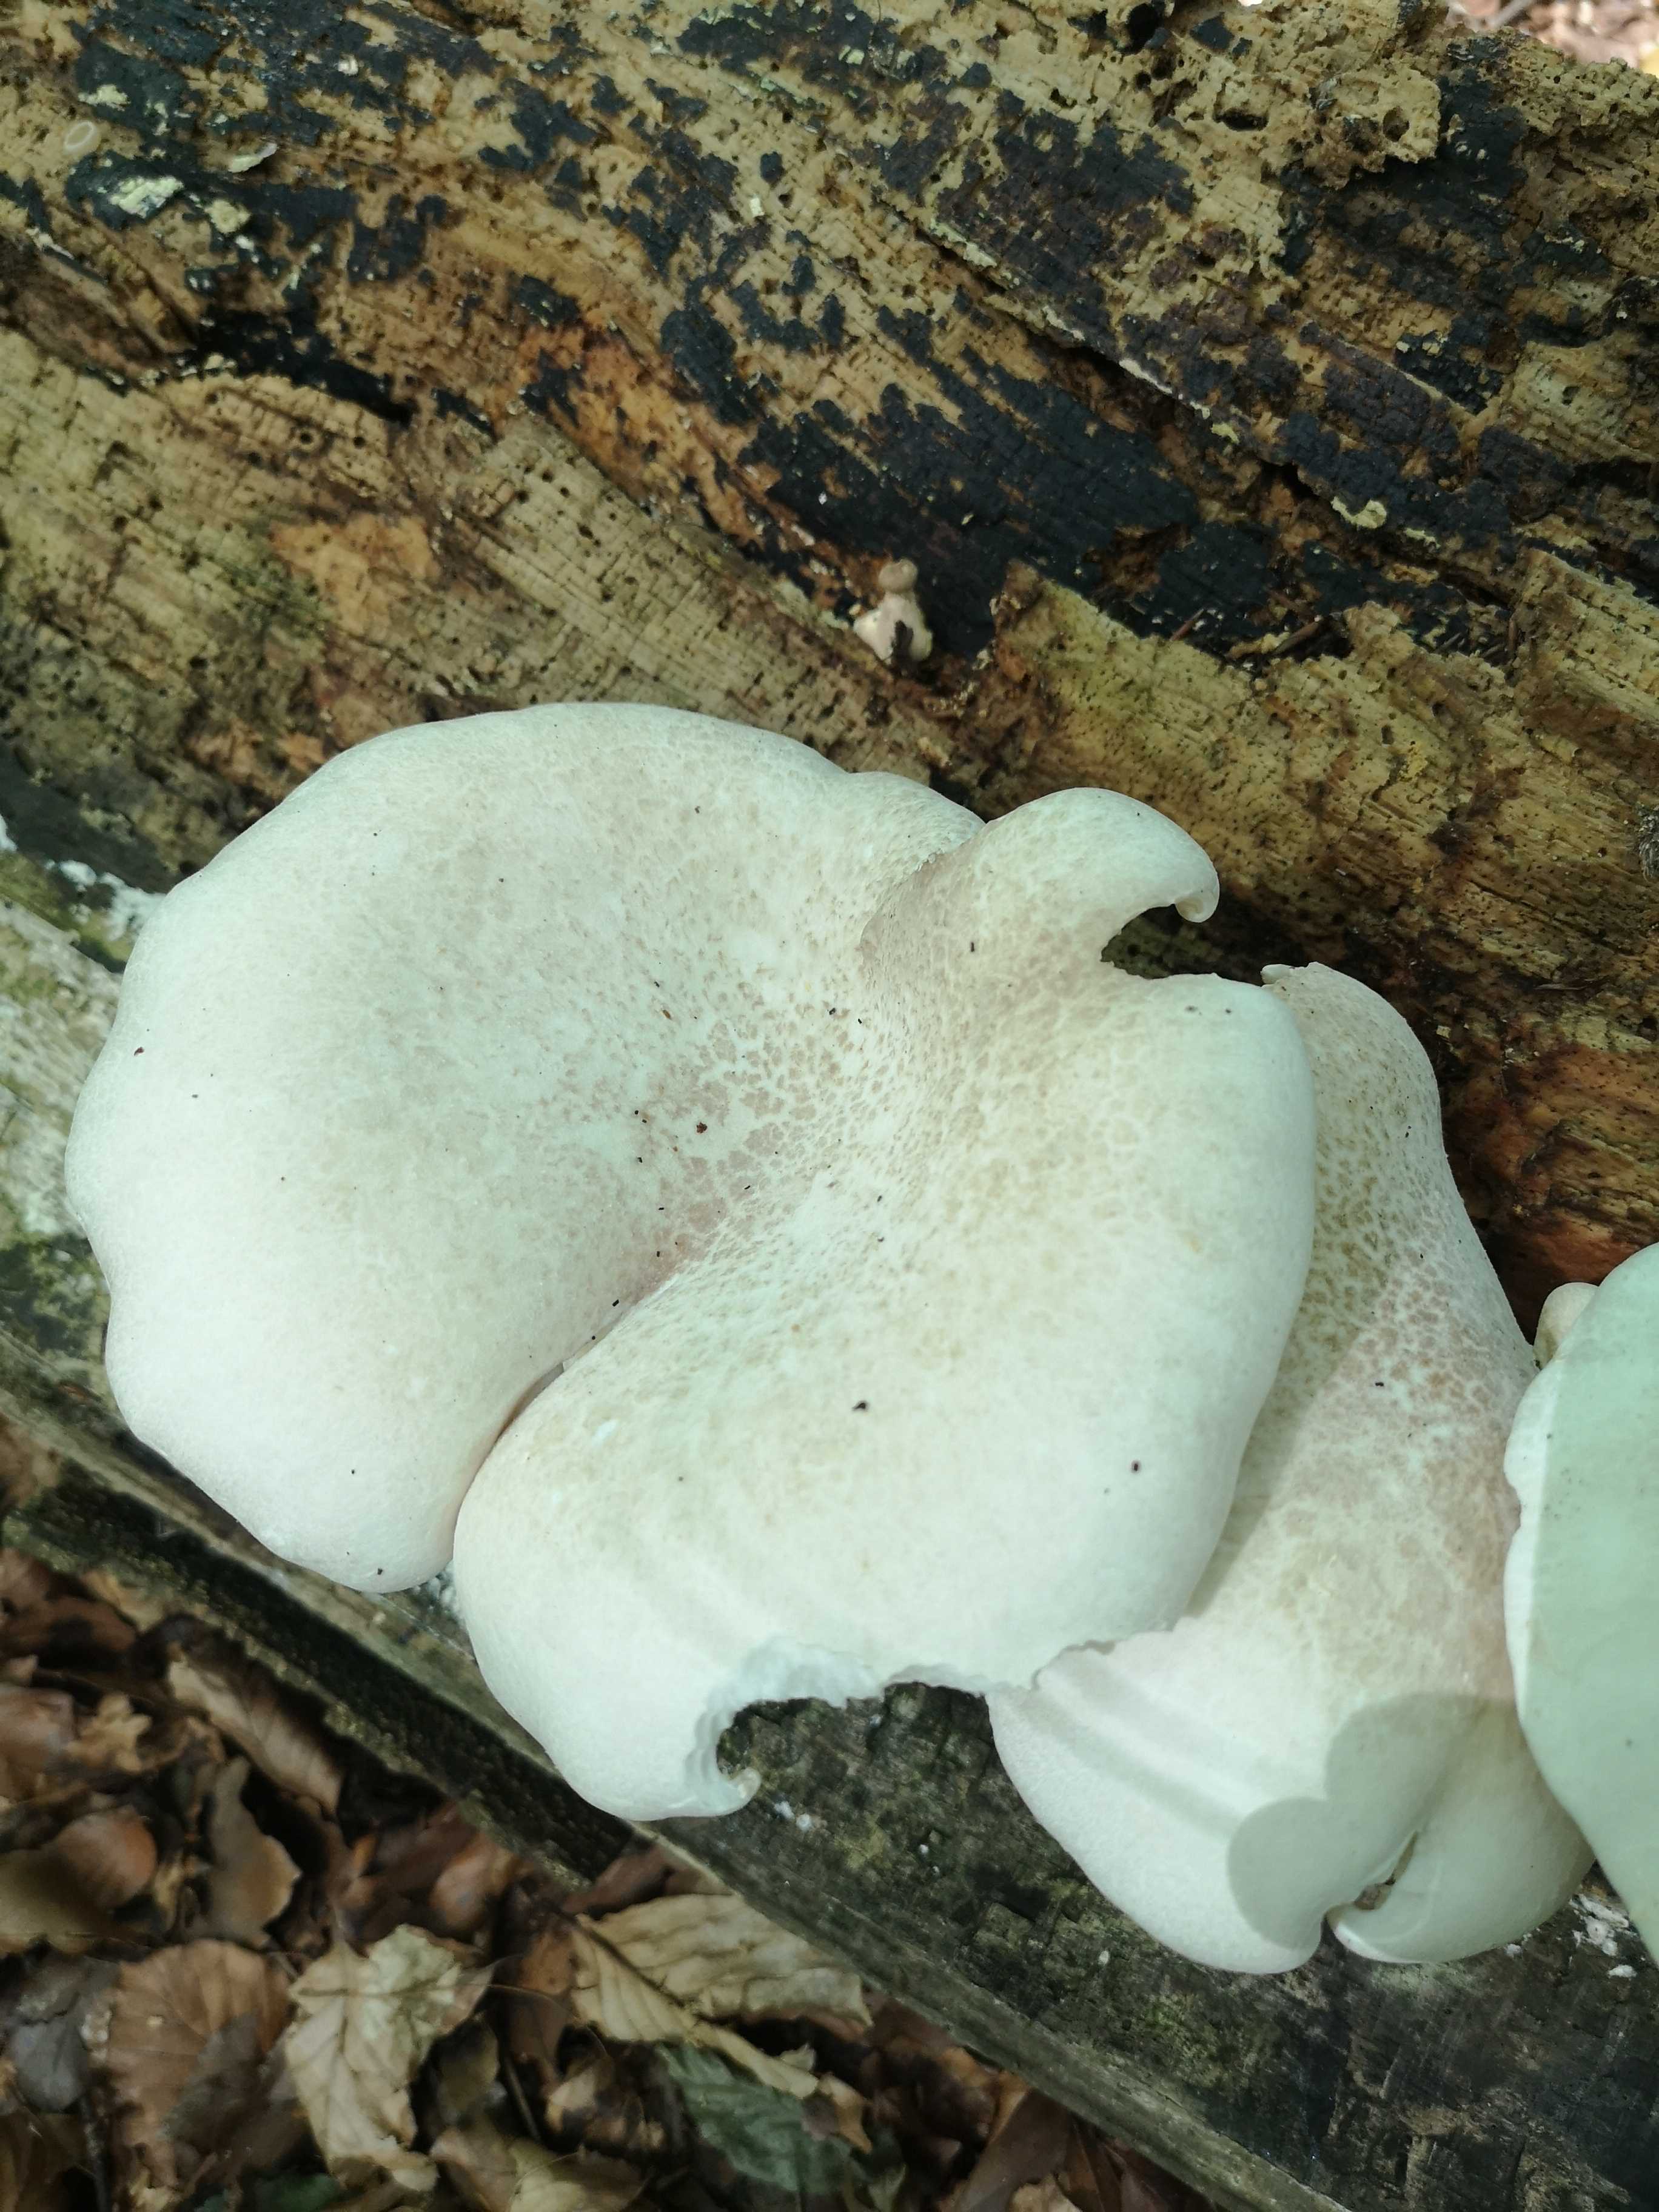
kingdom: Fungi
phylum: Basidiomycota
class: Agaricomycetes
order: Agaricales
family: Pleurotaceae
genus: Pleurotus
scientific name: Pleurotus dryinus
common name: korkagtig østershat
